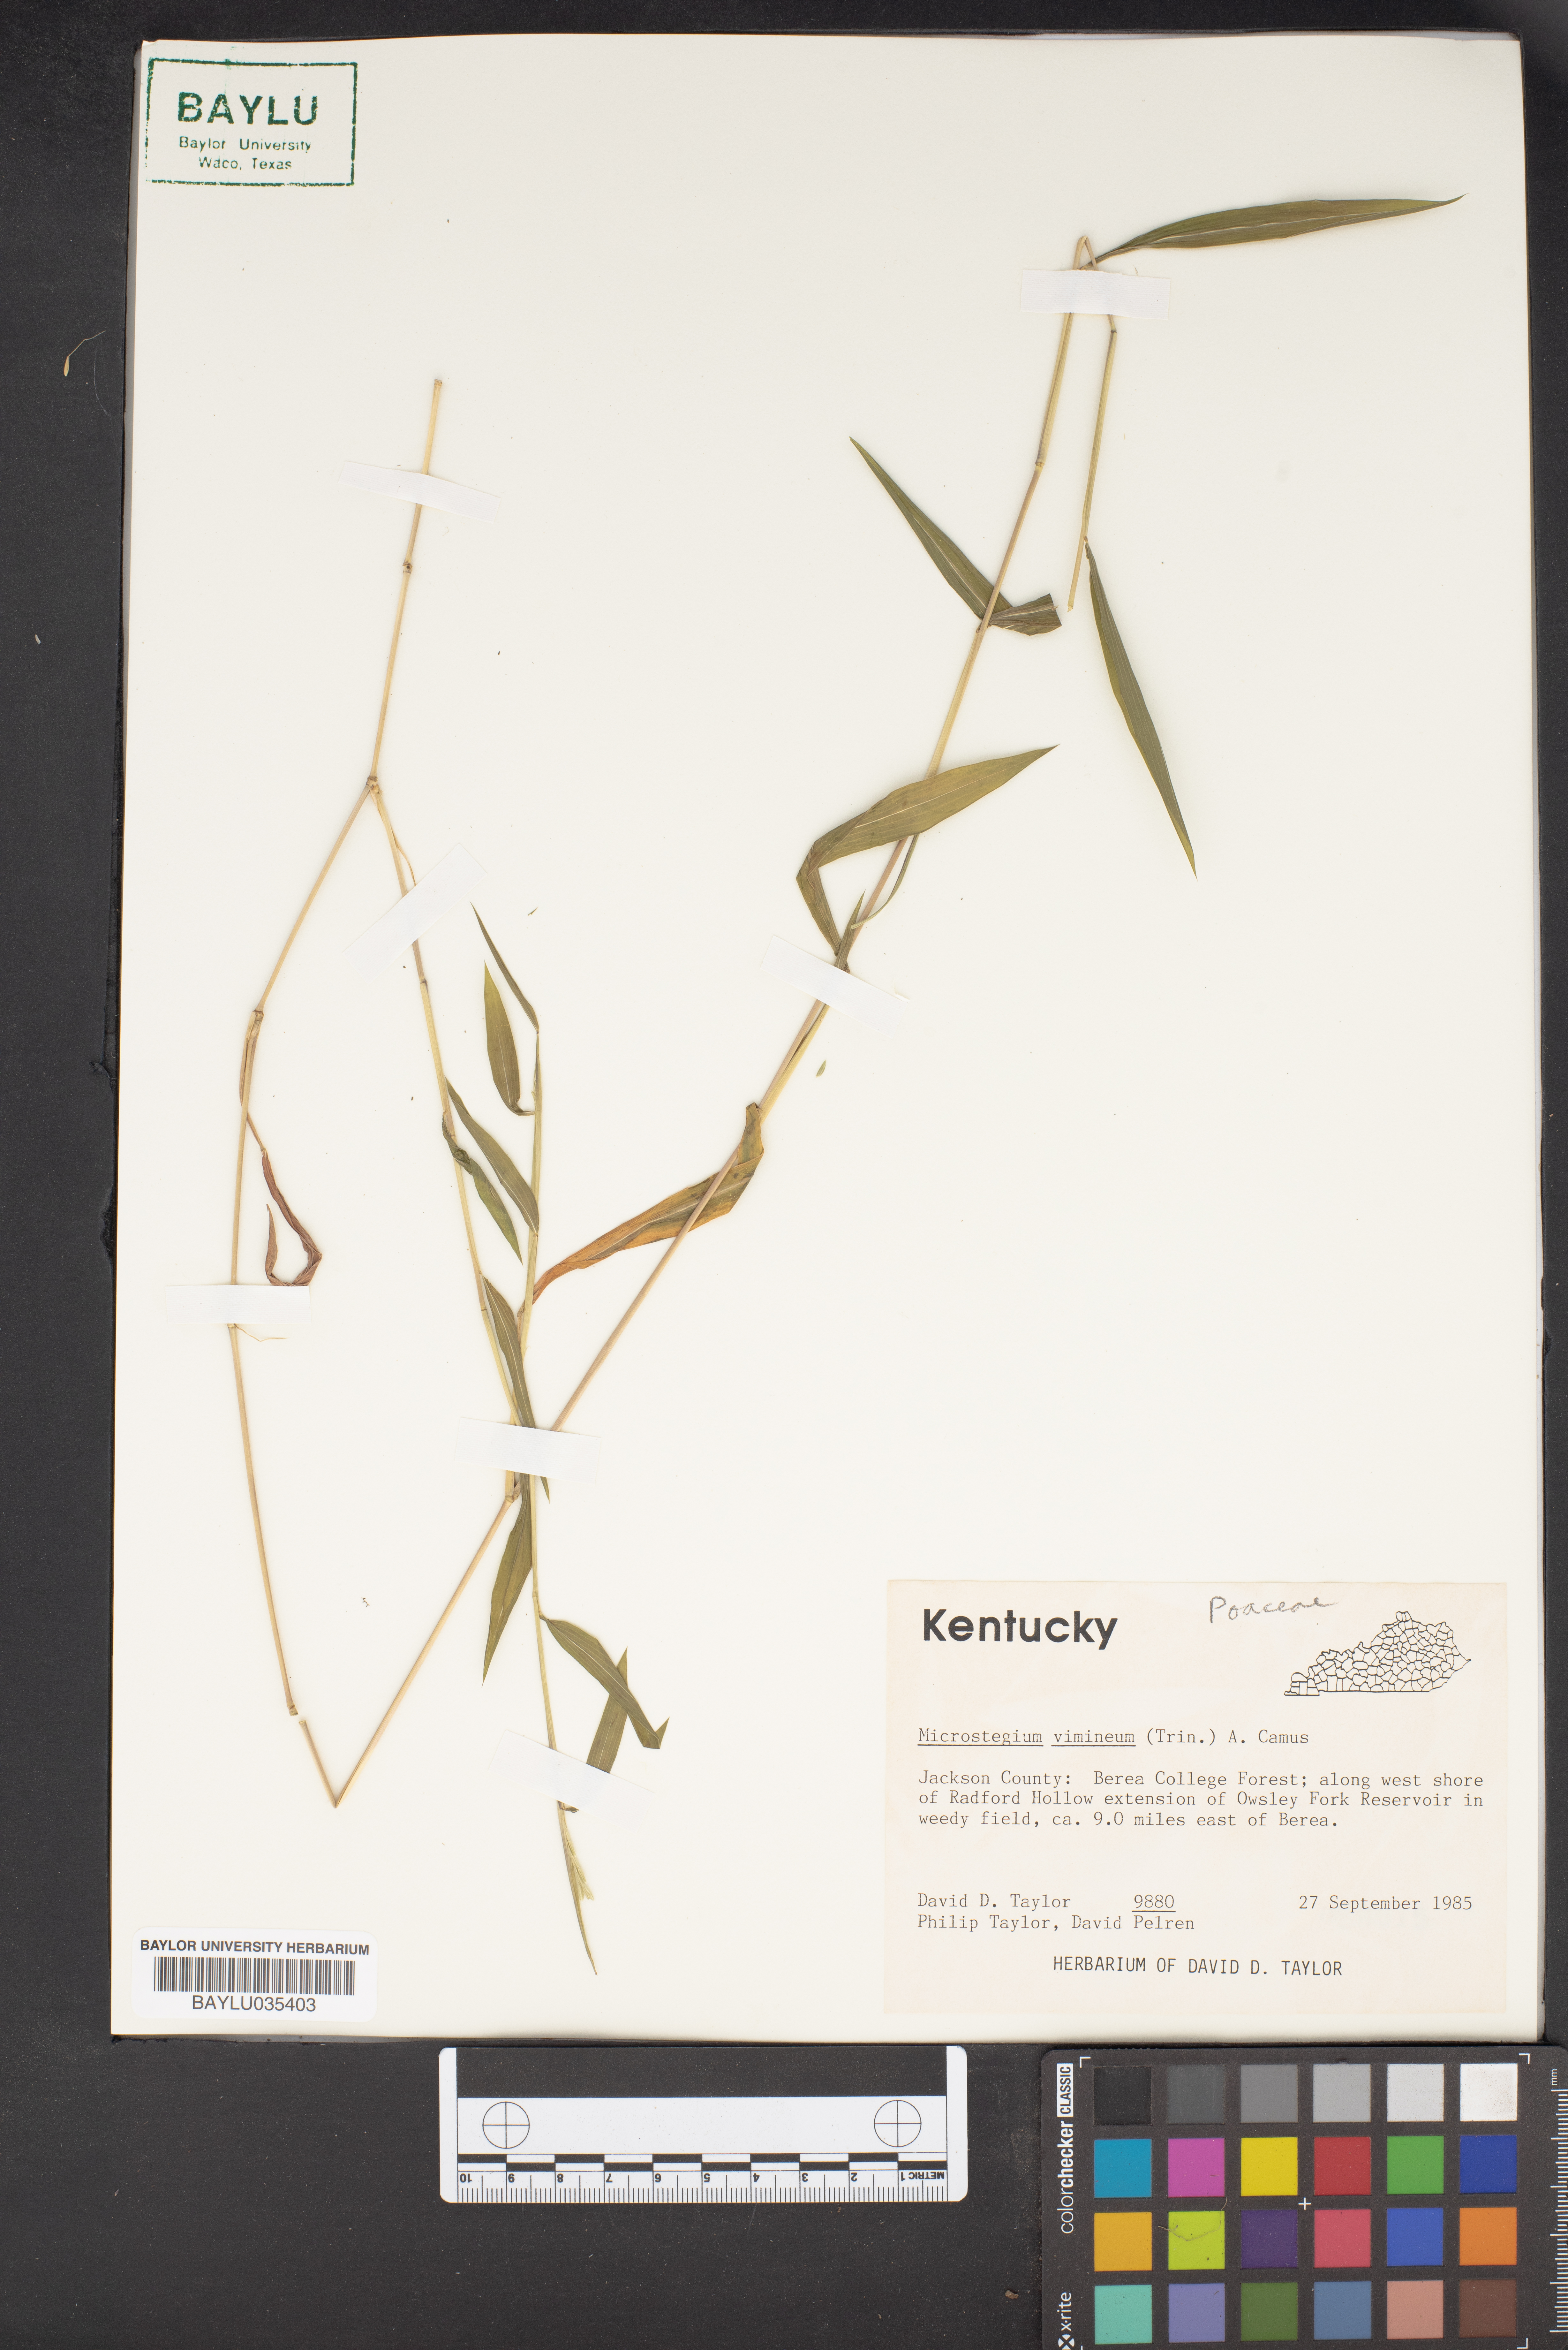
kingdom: Plantae
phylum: Tracheophyta
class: Liliopsida
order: Poales
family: Poaceae
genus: Microstegium
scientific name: Microstegium vimineum
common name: Japanese stiltgrass
